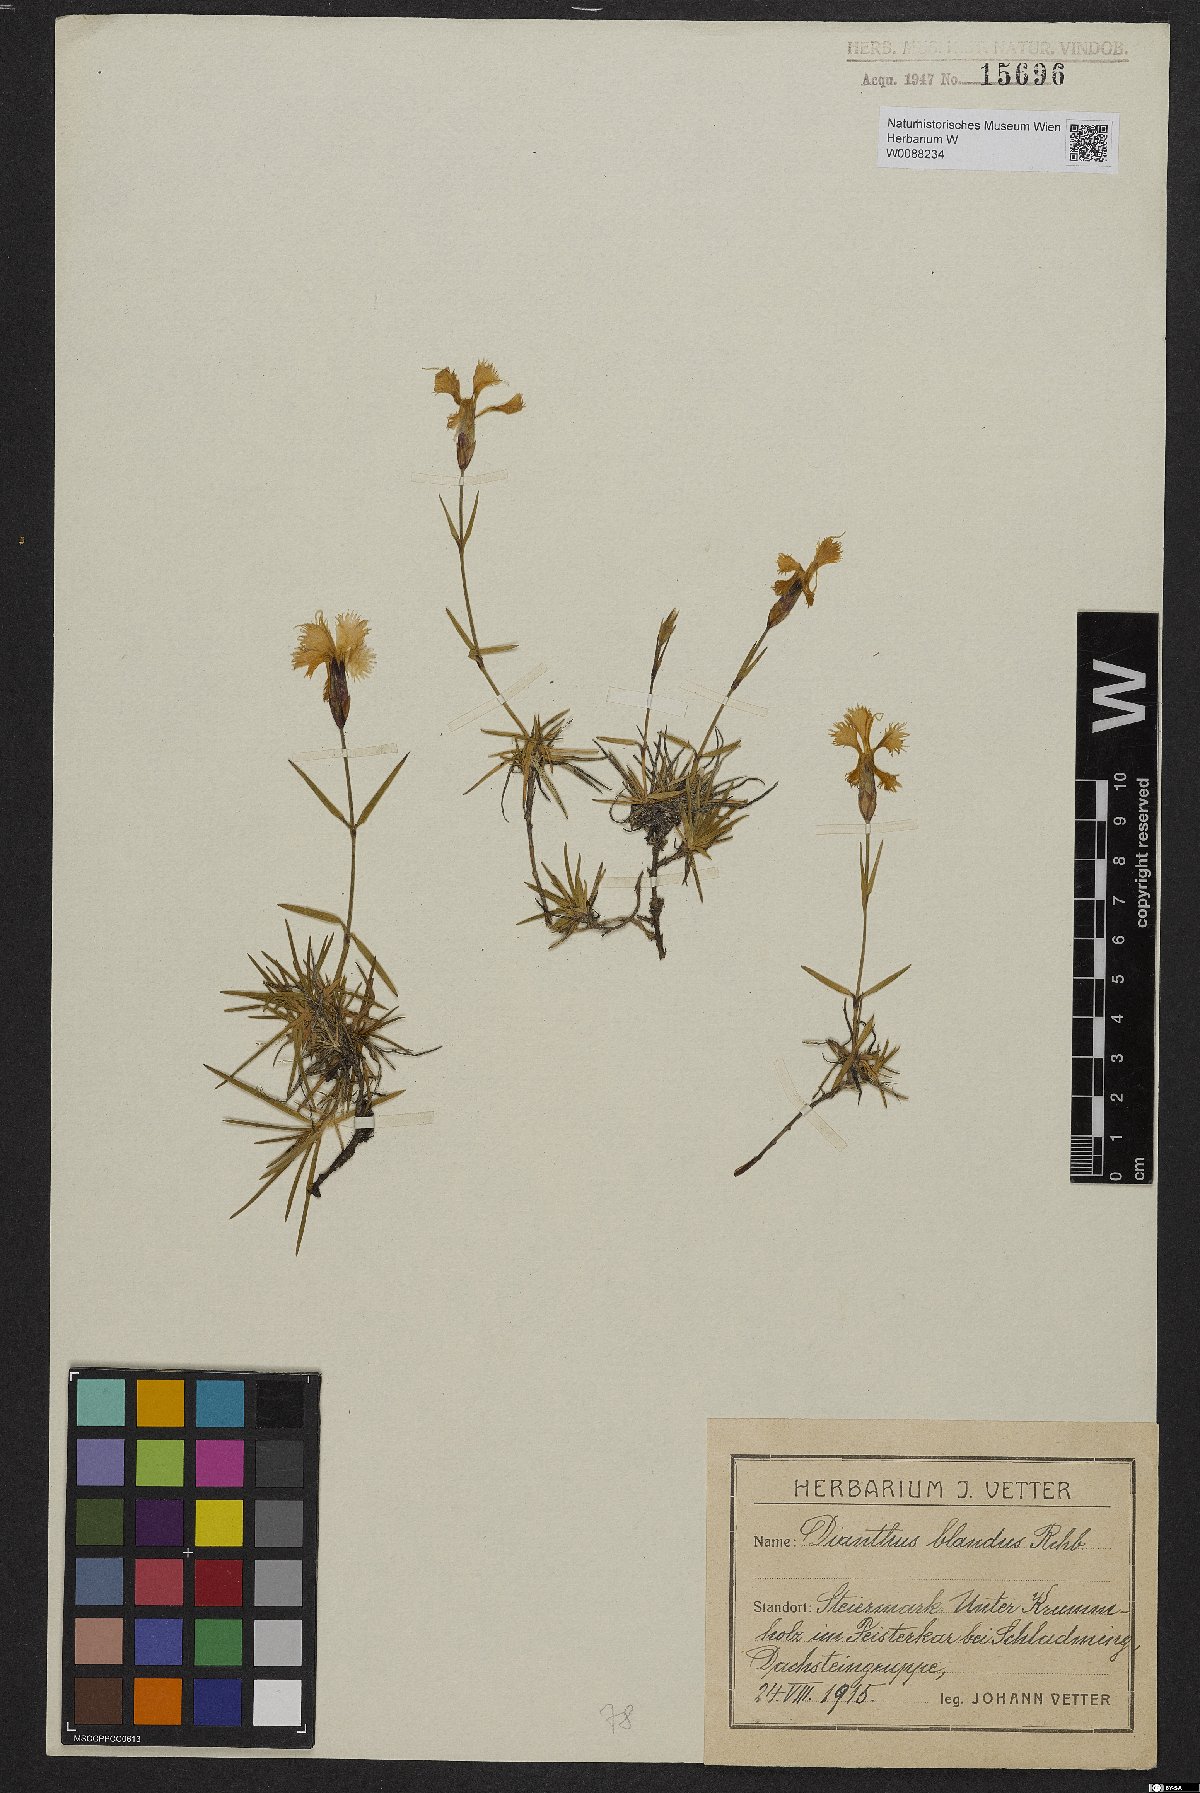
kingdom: Plantae
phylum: Tracheophyta
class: Magnoliopsida
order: Caryophyllales
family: Caryophyllaceae
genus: Dianthus
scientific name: Dianthus plumarius
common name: Pink
